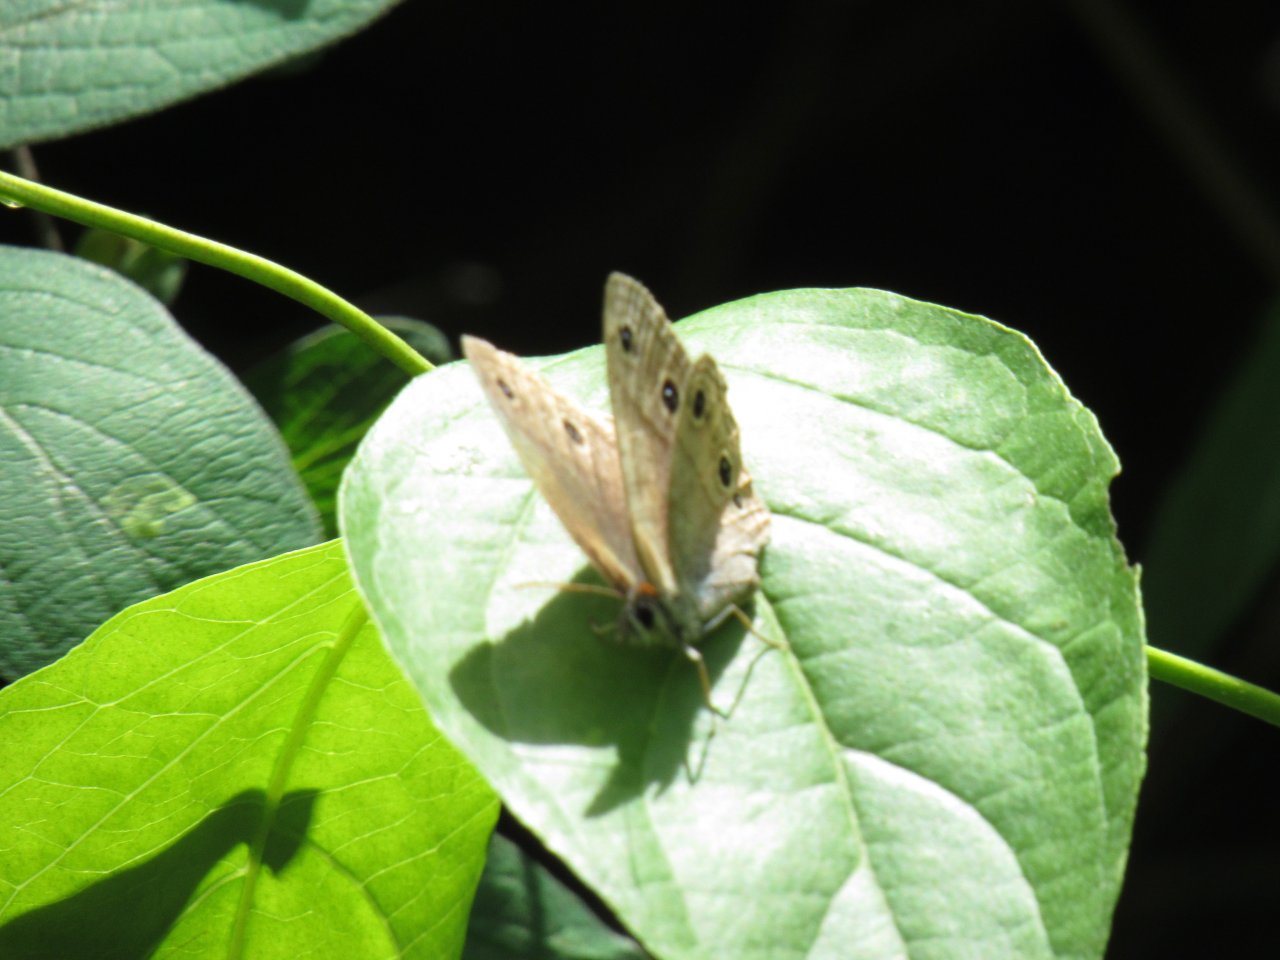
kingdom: Animalia
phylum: Arthropoda
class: Insecta
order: Lepidoptera
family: Nymphalidae
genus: Euptychia
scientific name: Euptychia cymela
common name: Little Wood Satyr
